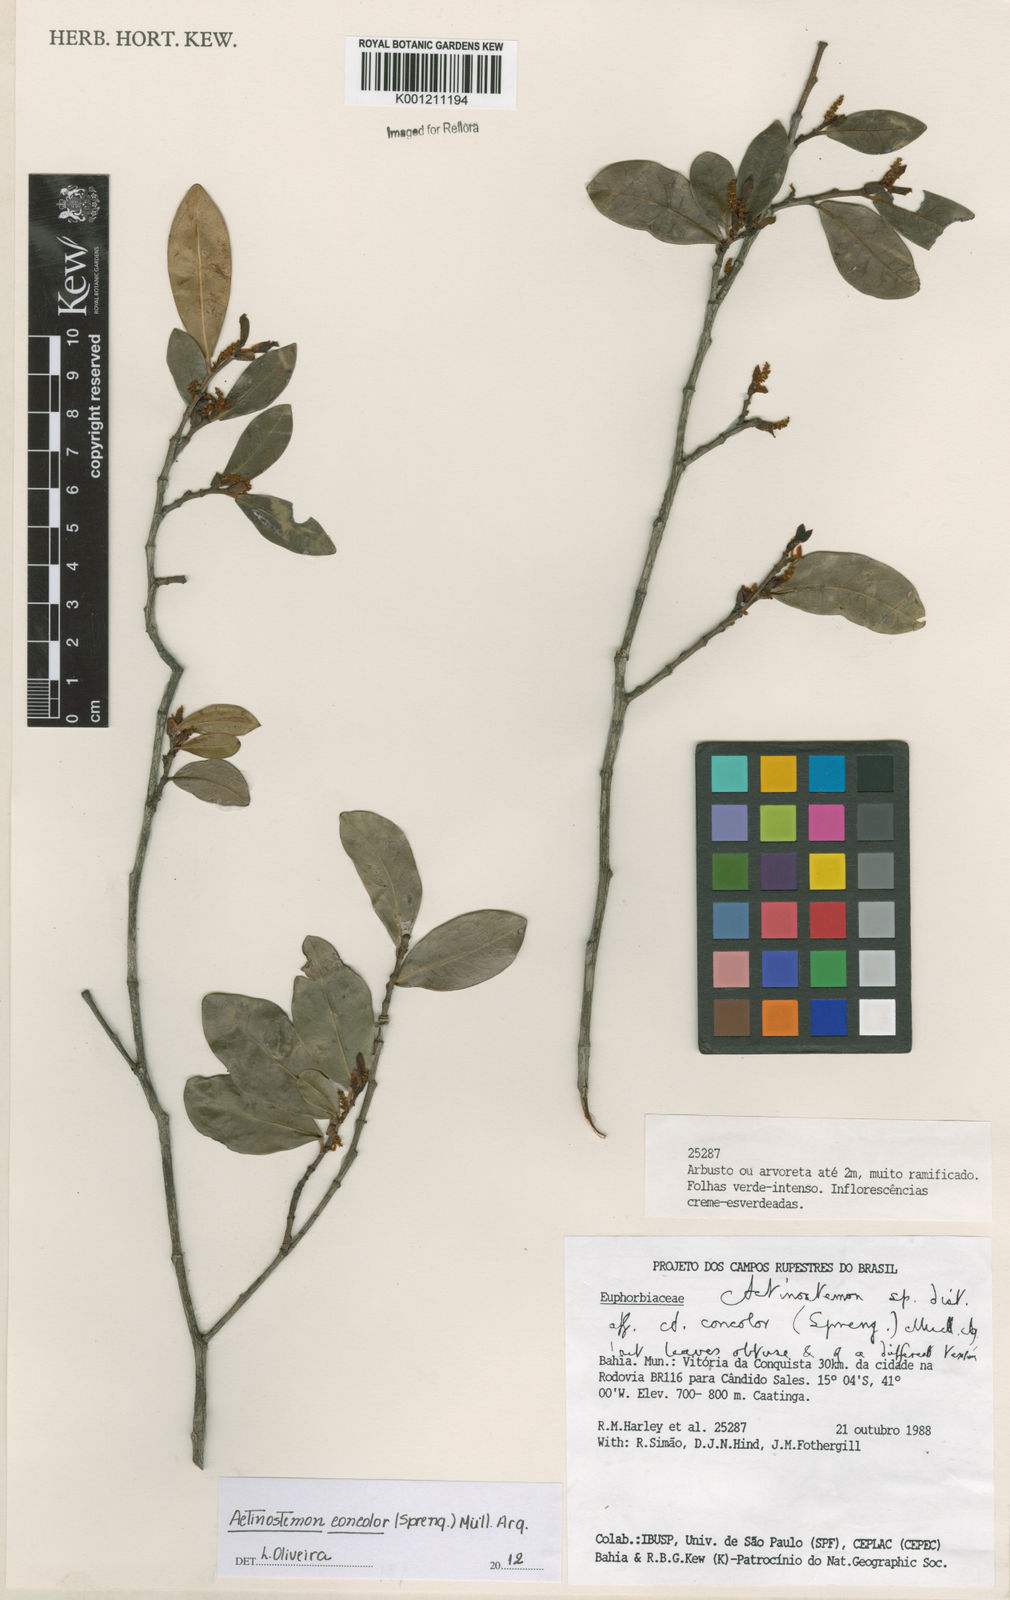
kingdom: Plantae
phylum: Tracheophyta
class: Magnoliopsida
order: Malpighiales
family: Euphorbiaceae
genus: Actinostemon
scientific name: Actinostemon
